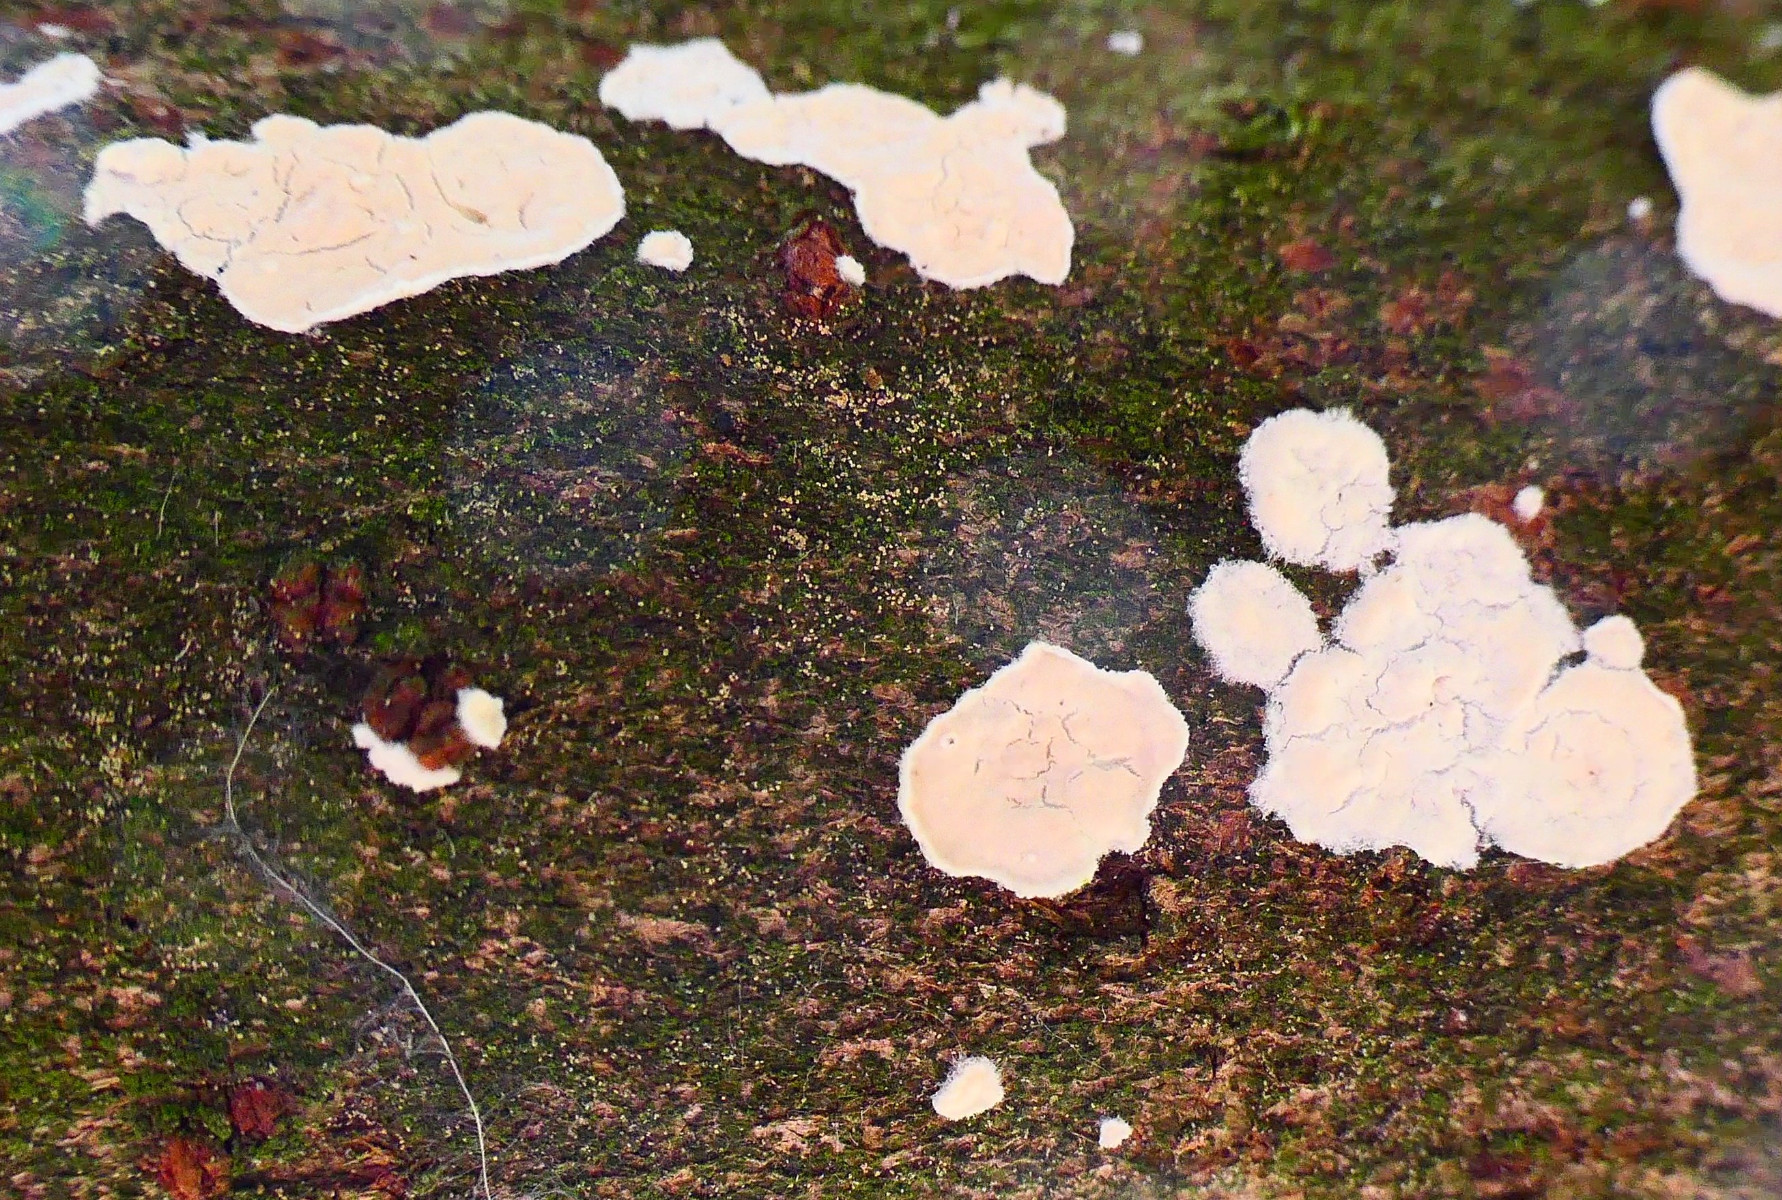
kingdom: Fungi
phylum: Basidiomycota
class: Agaricomycetes
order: Agaricales
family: Physalacriaceae
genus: Cylindrobasidium
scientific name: Cylindrobasidium evolvens
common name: sprækkehinde
